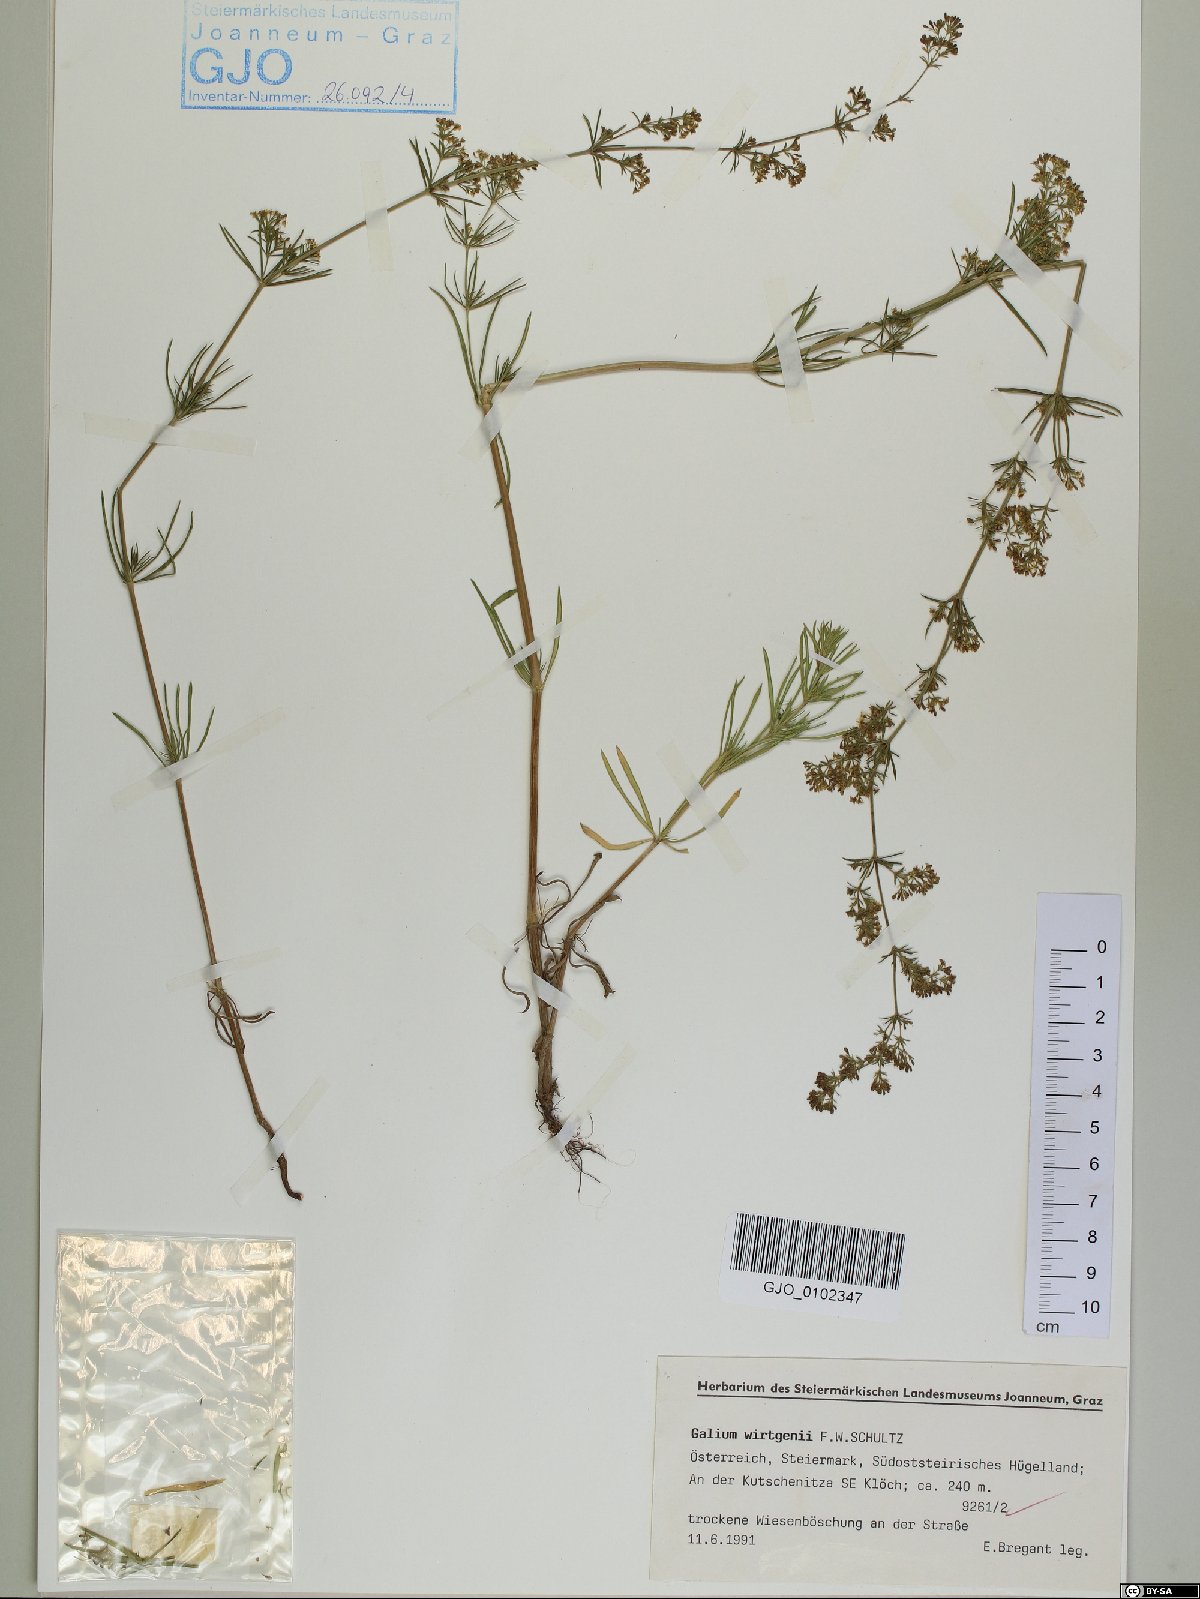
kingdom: Plantae
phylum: Tracheophyta
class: Magnoliopsida
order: Gentianales
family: Rubiaceae
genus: Galium
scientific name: Galium verum
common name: Lady's bedstraw
